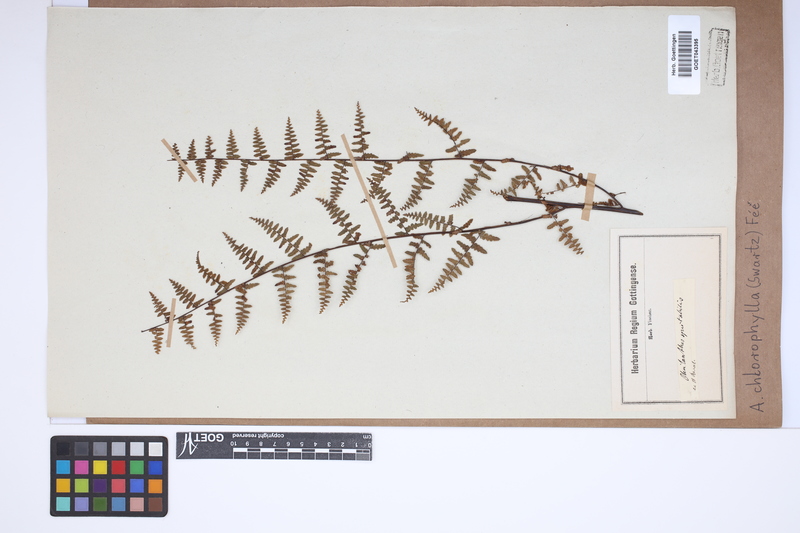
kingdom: Plantae
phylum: Tracheophyta
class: Polypodiopsida
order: Polypodiales
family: Pteridaceae
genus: Adiantopsis
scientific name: Adiantopsis chlorophylla
